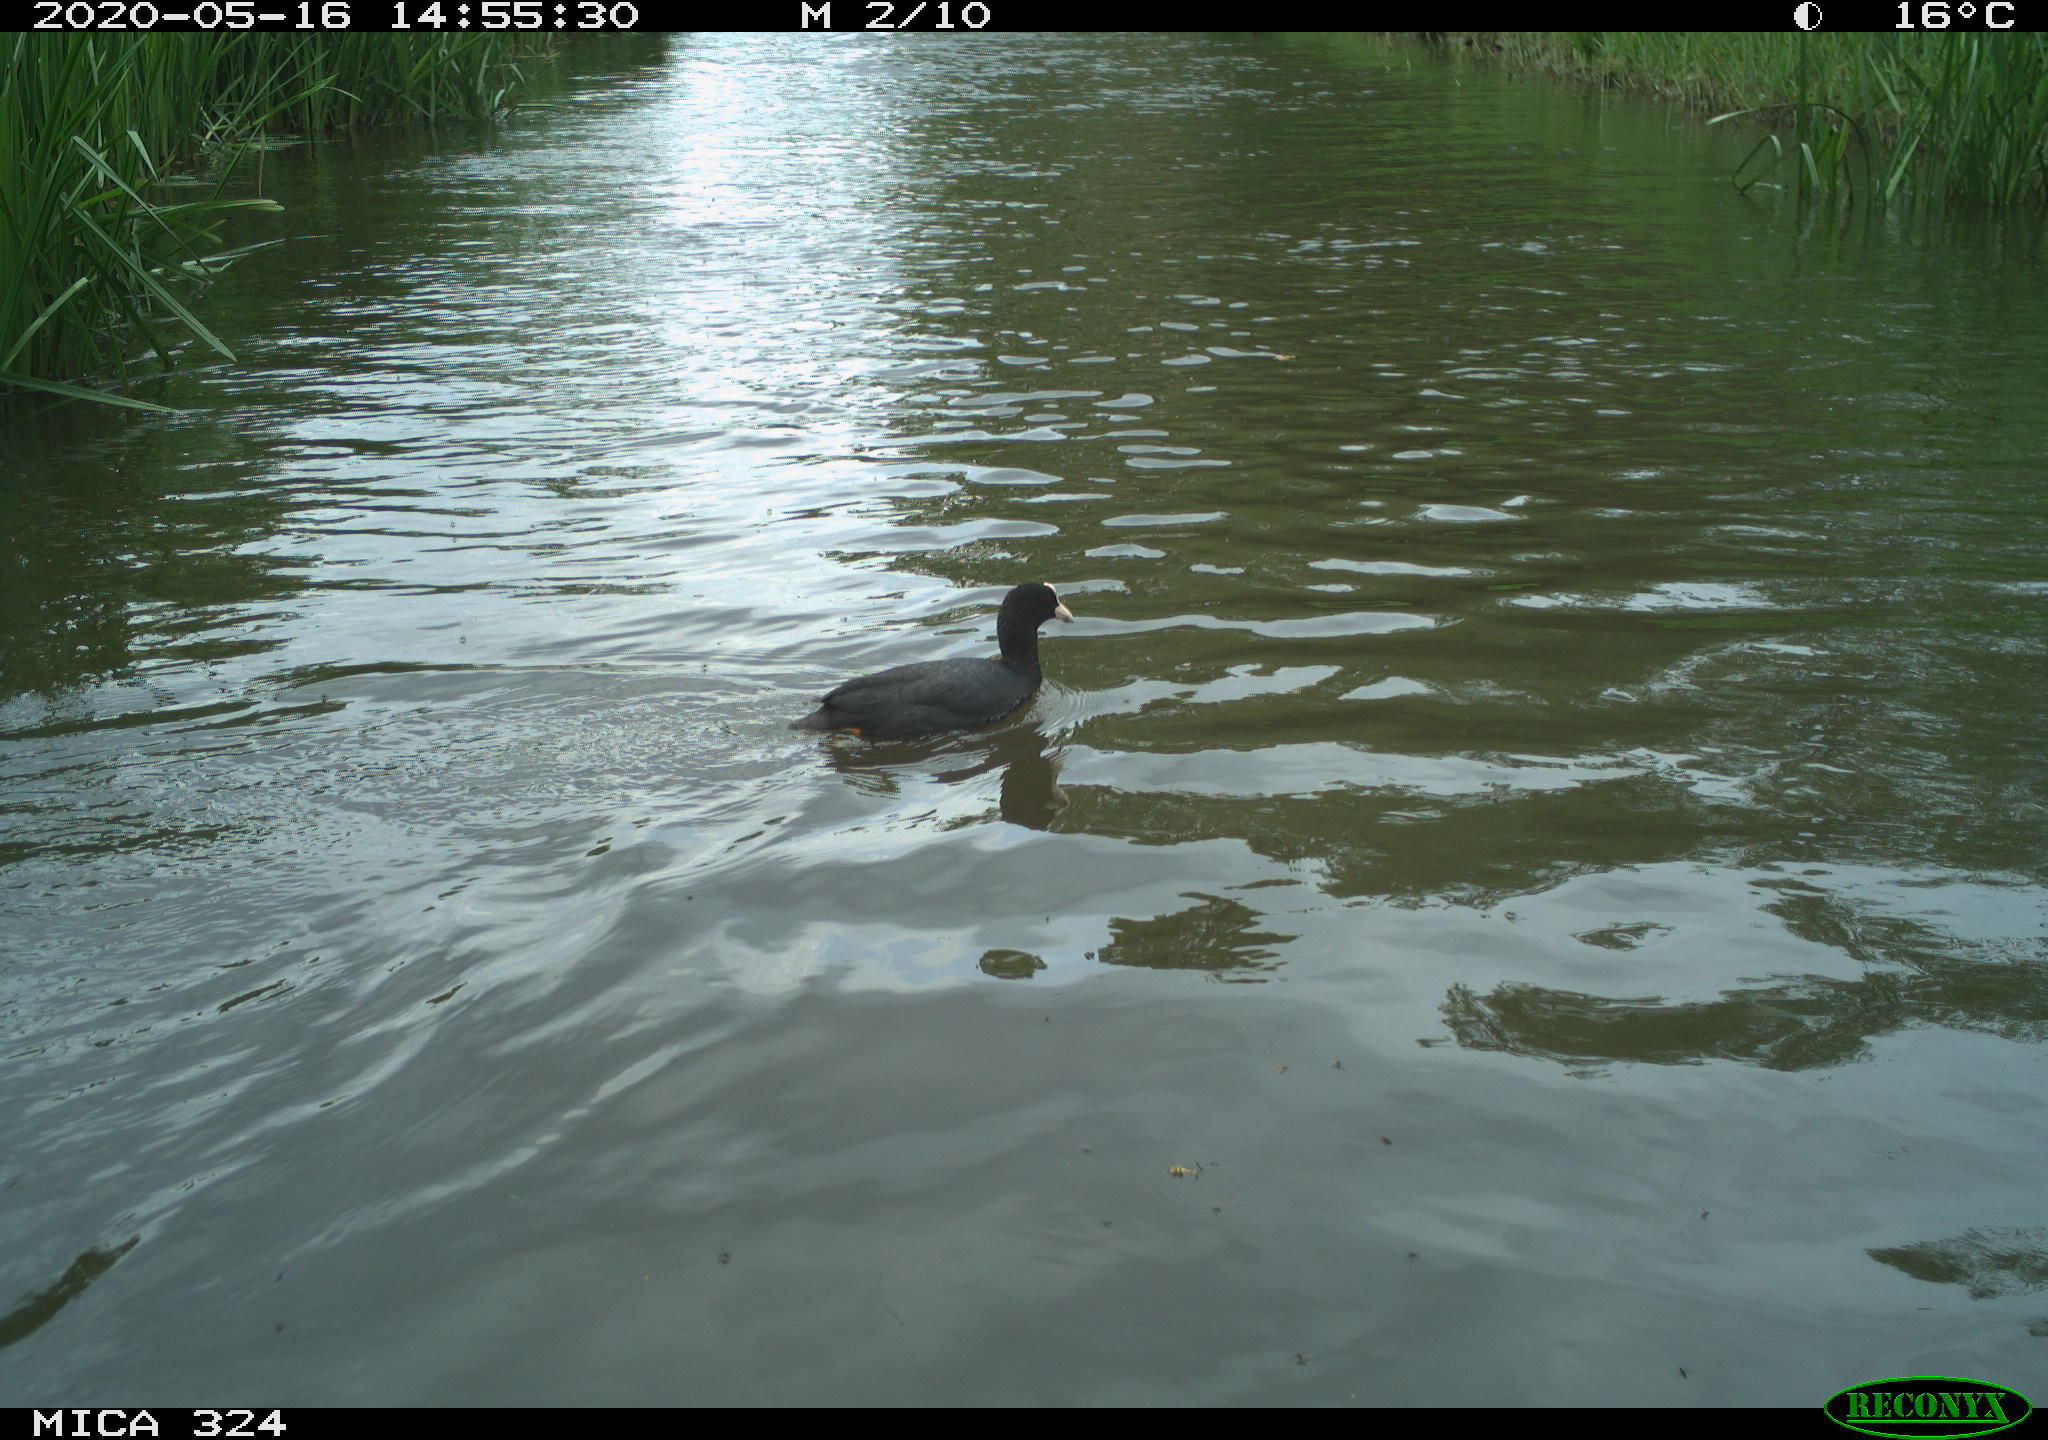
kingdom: Animalia
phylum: Chordata
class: Aves
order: Gruiformes
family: Rallidae
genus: Fulica
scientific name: Fulica atra
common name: Eurasian coot
